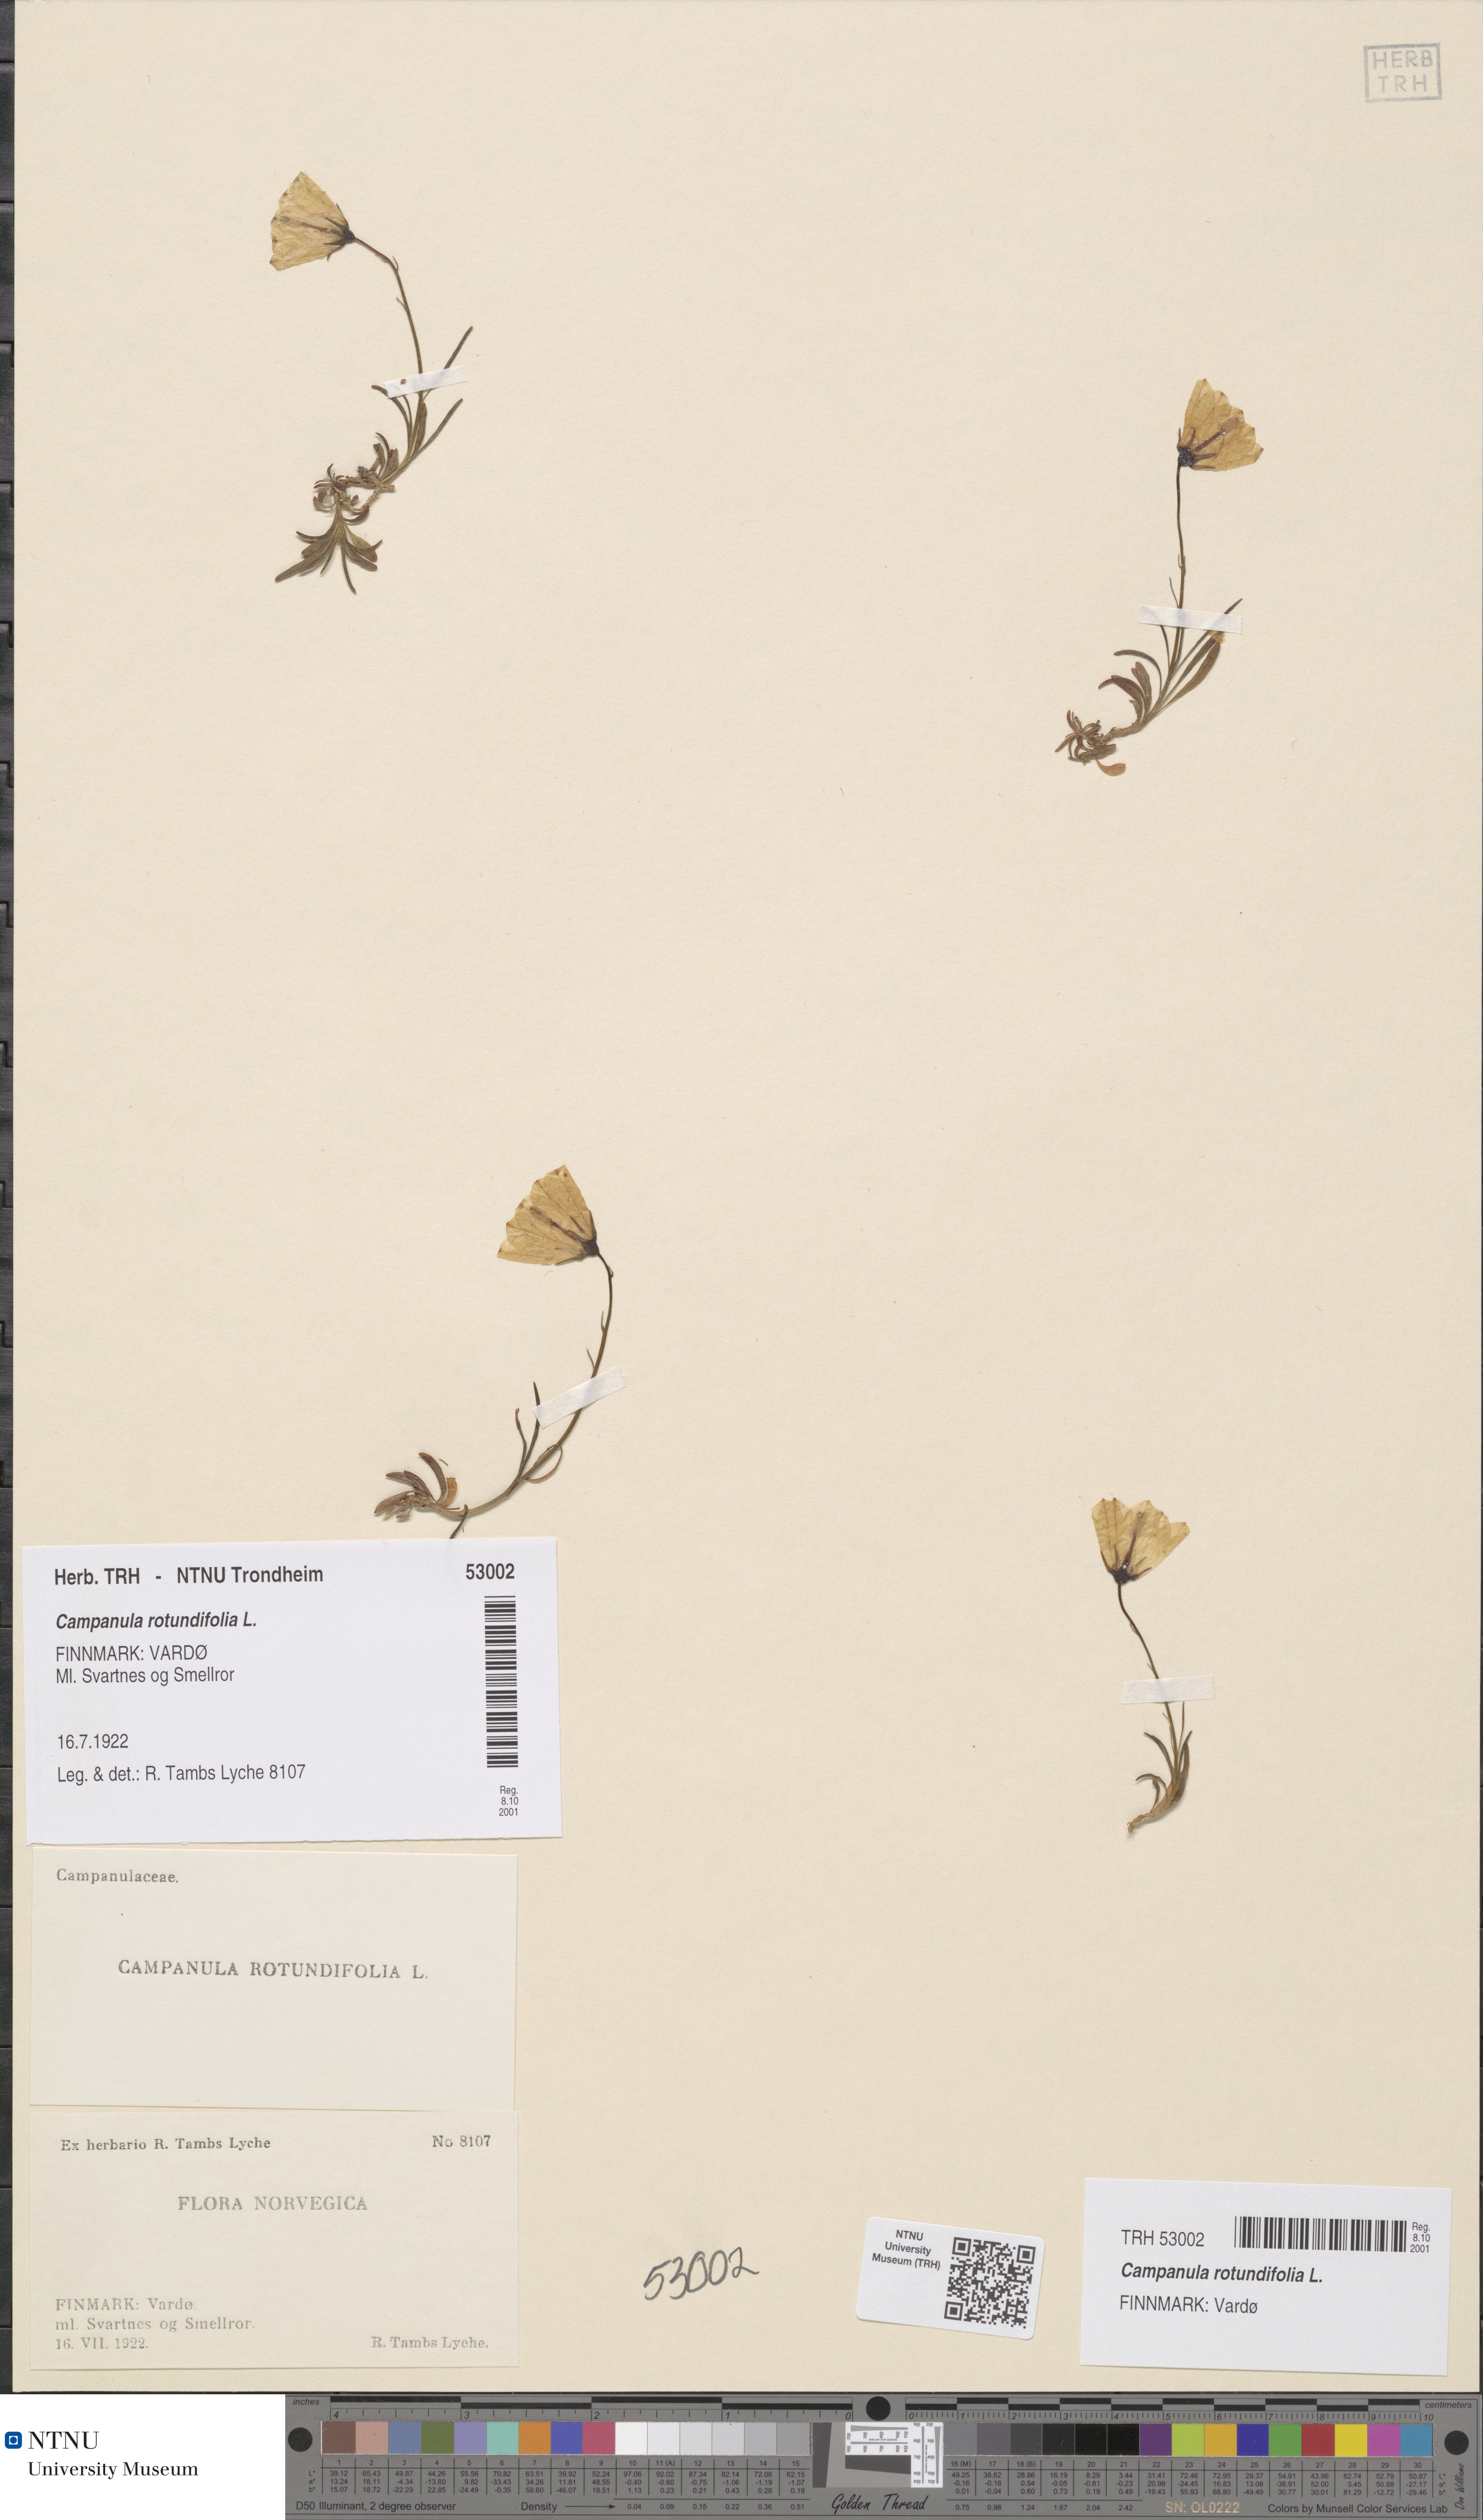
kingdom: Plantae
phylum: Tracheophyta
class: Magnoliopsida
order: Asterales
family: Campanulaceae
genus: Campanula
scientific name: Campanula rotundifolia
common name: Harebell
